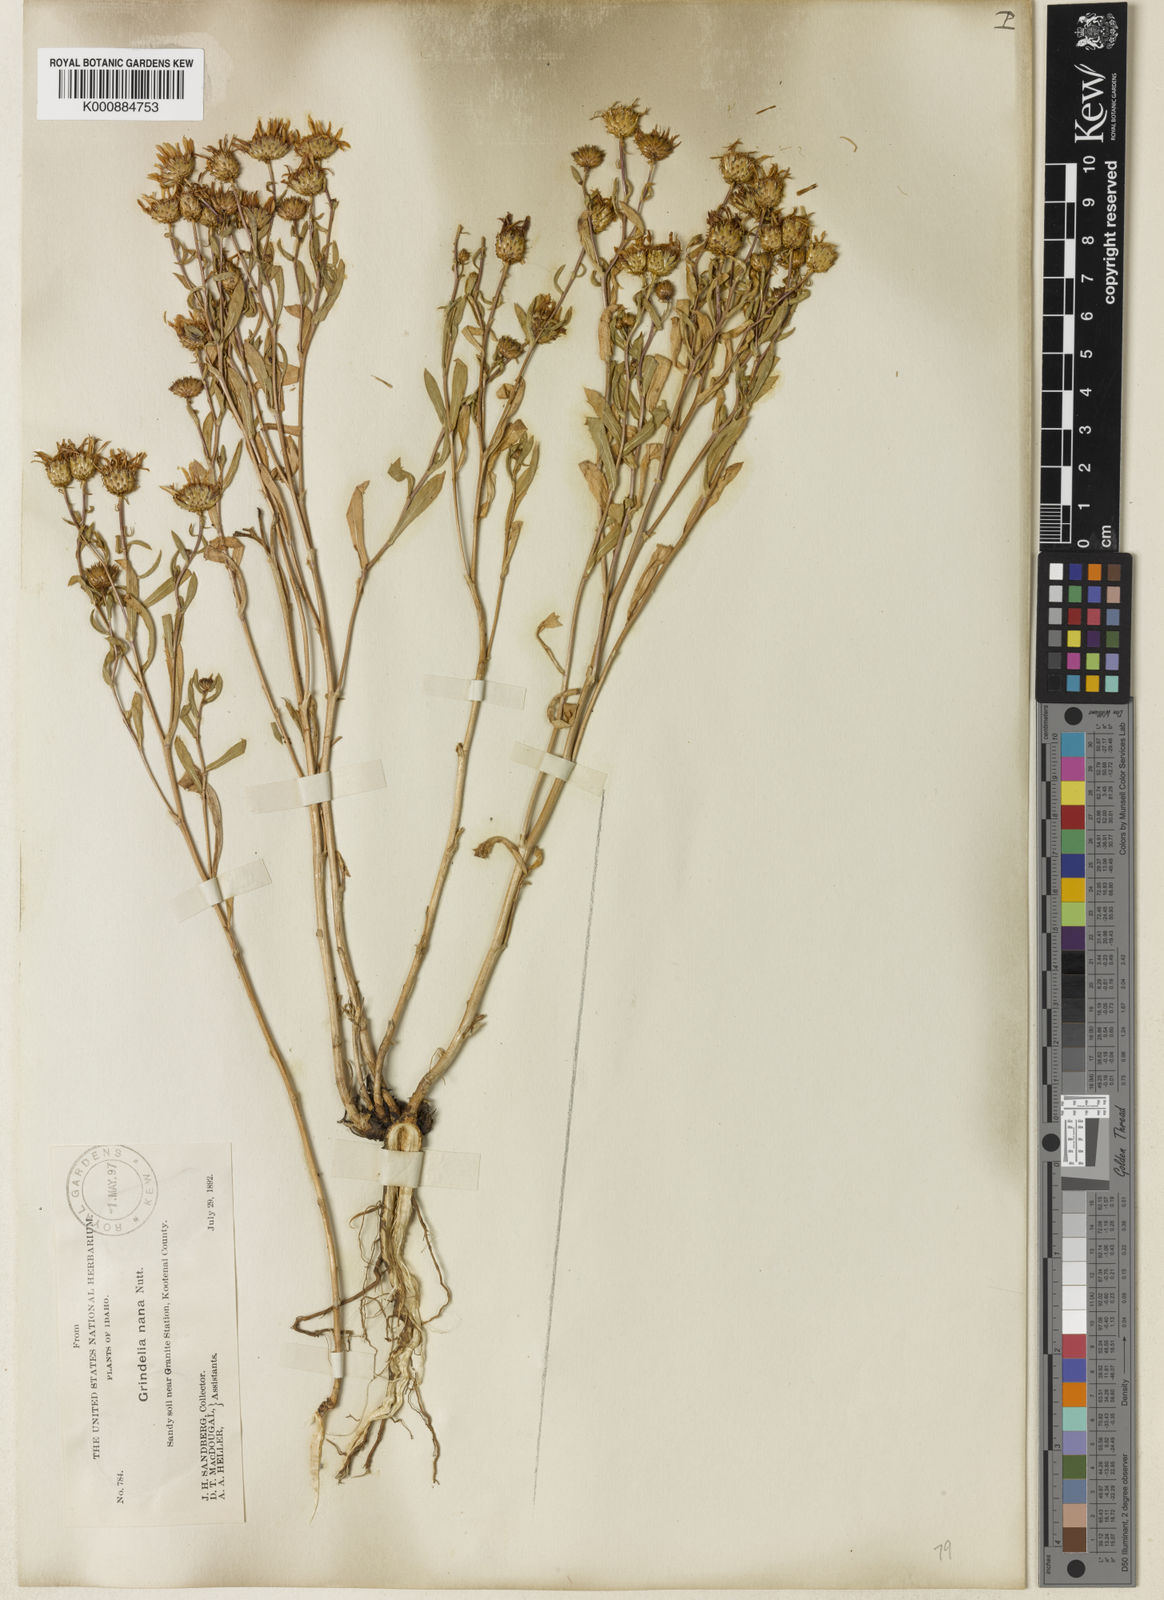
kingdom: Plantae
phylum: Tracheophyta
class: Magnoliopsida
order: Asterales
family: Asteraceae
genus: Grindelia
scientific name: Grindelia hirsutula
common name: Hairy gumweed
